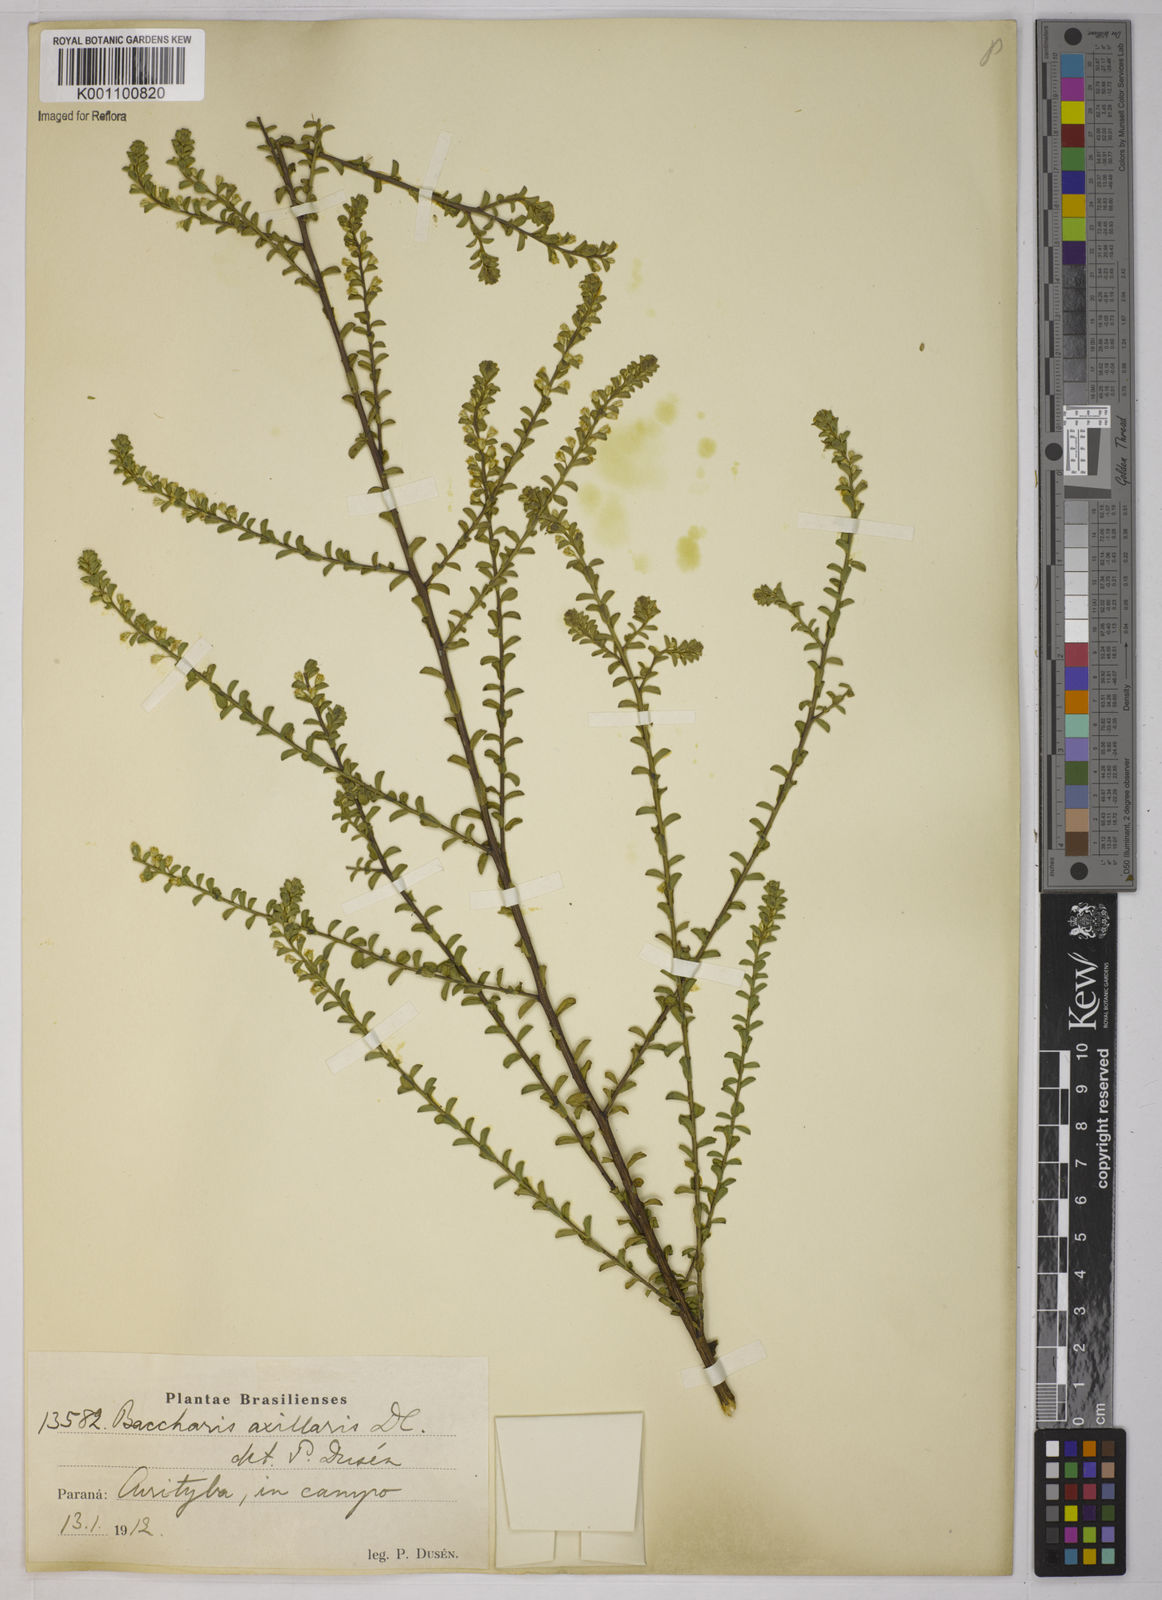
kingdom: Plantae
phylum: Tracheophyta
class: Magnoliopsida
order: Asterales
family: Asteraceae
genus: Baccharis
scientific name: Baccharis axillaris
